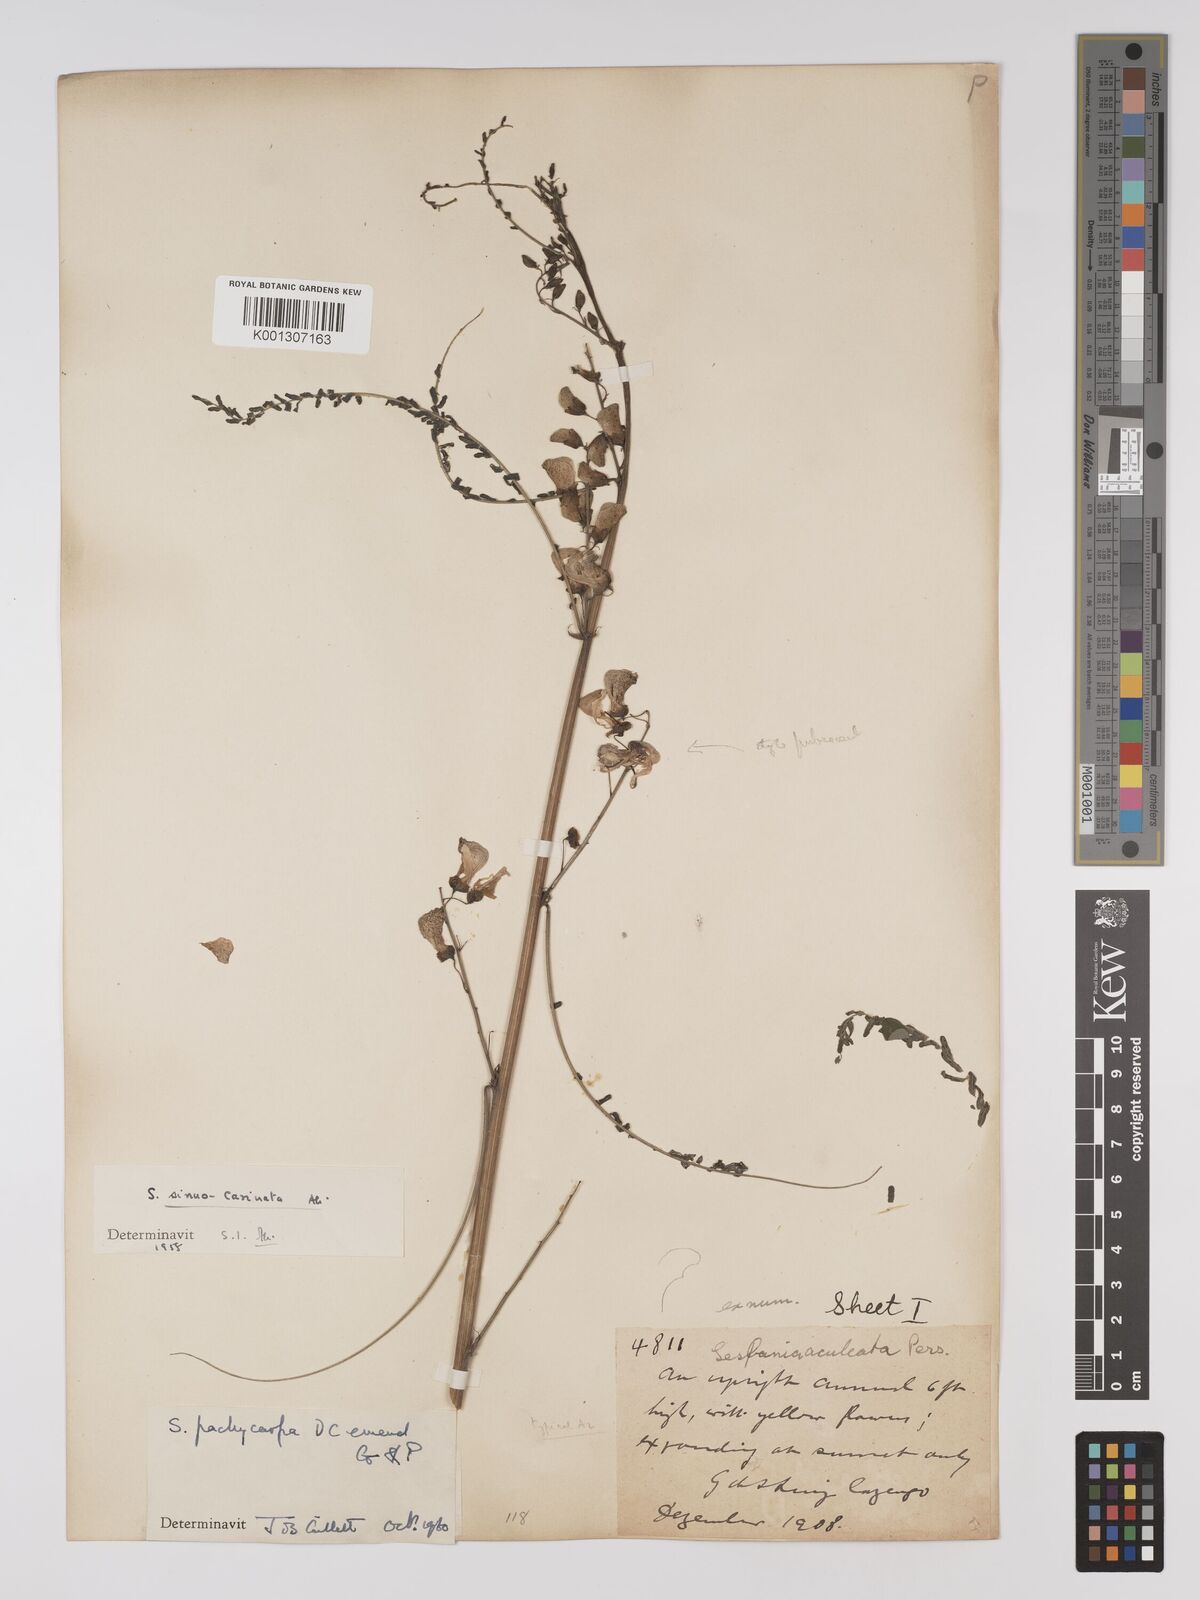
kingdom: Plantae
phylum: Tracheophyta
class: Magnoliopsida
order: Fabales
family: Fabaceae
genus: Sesbania
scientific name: Sesbania pachycarpa
